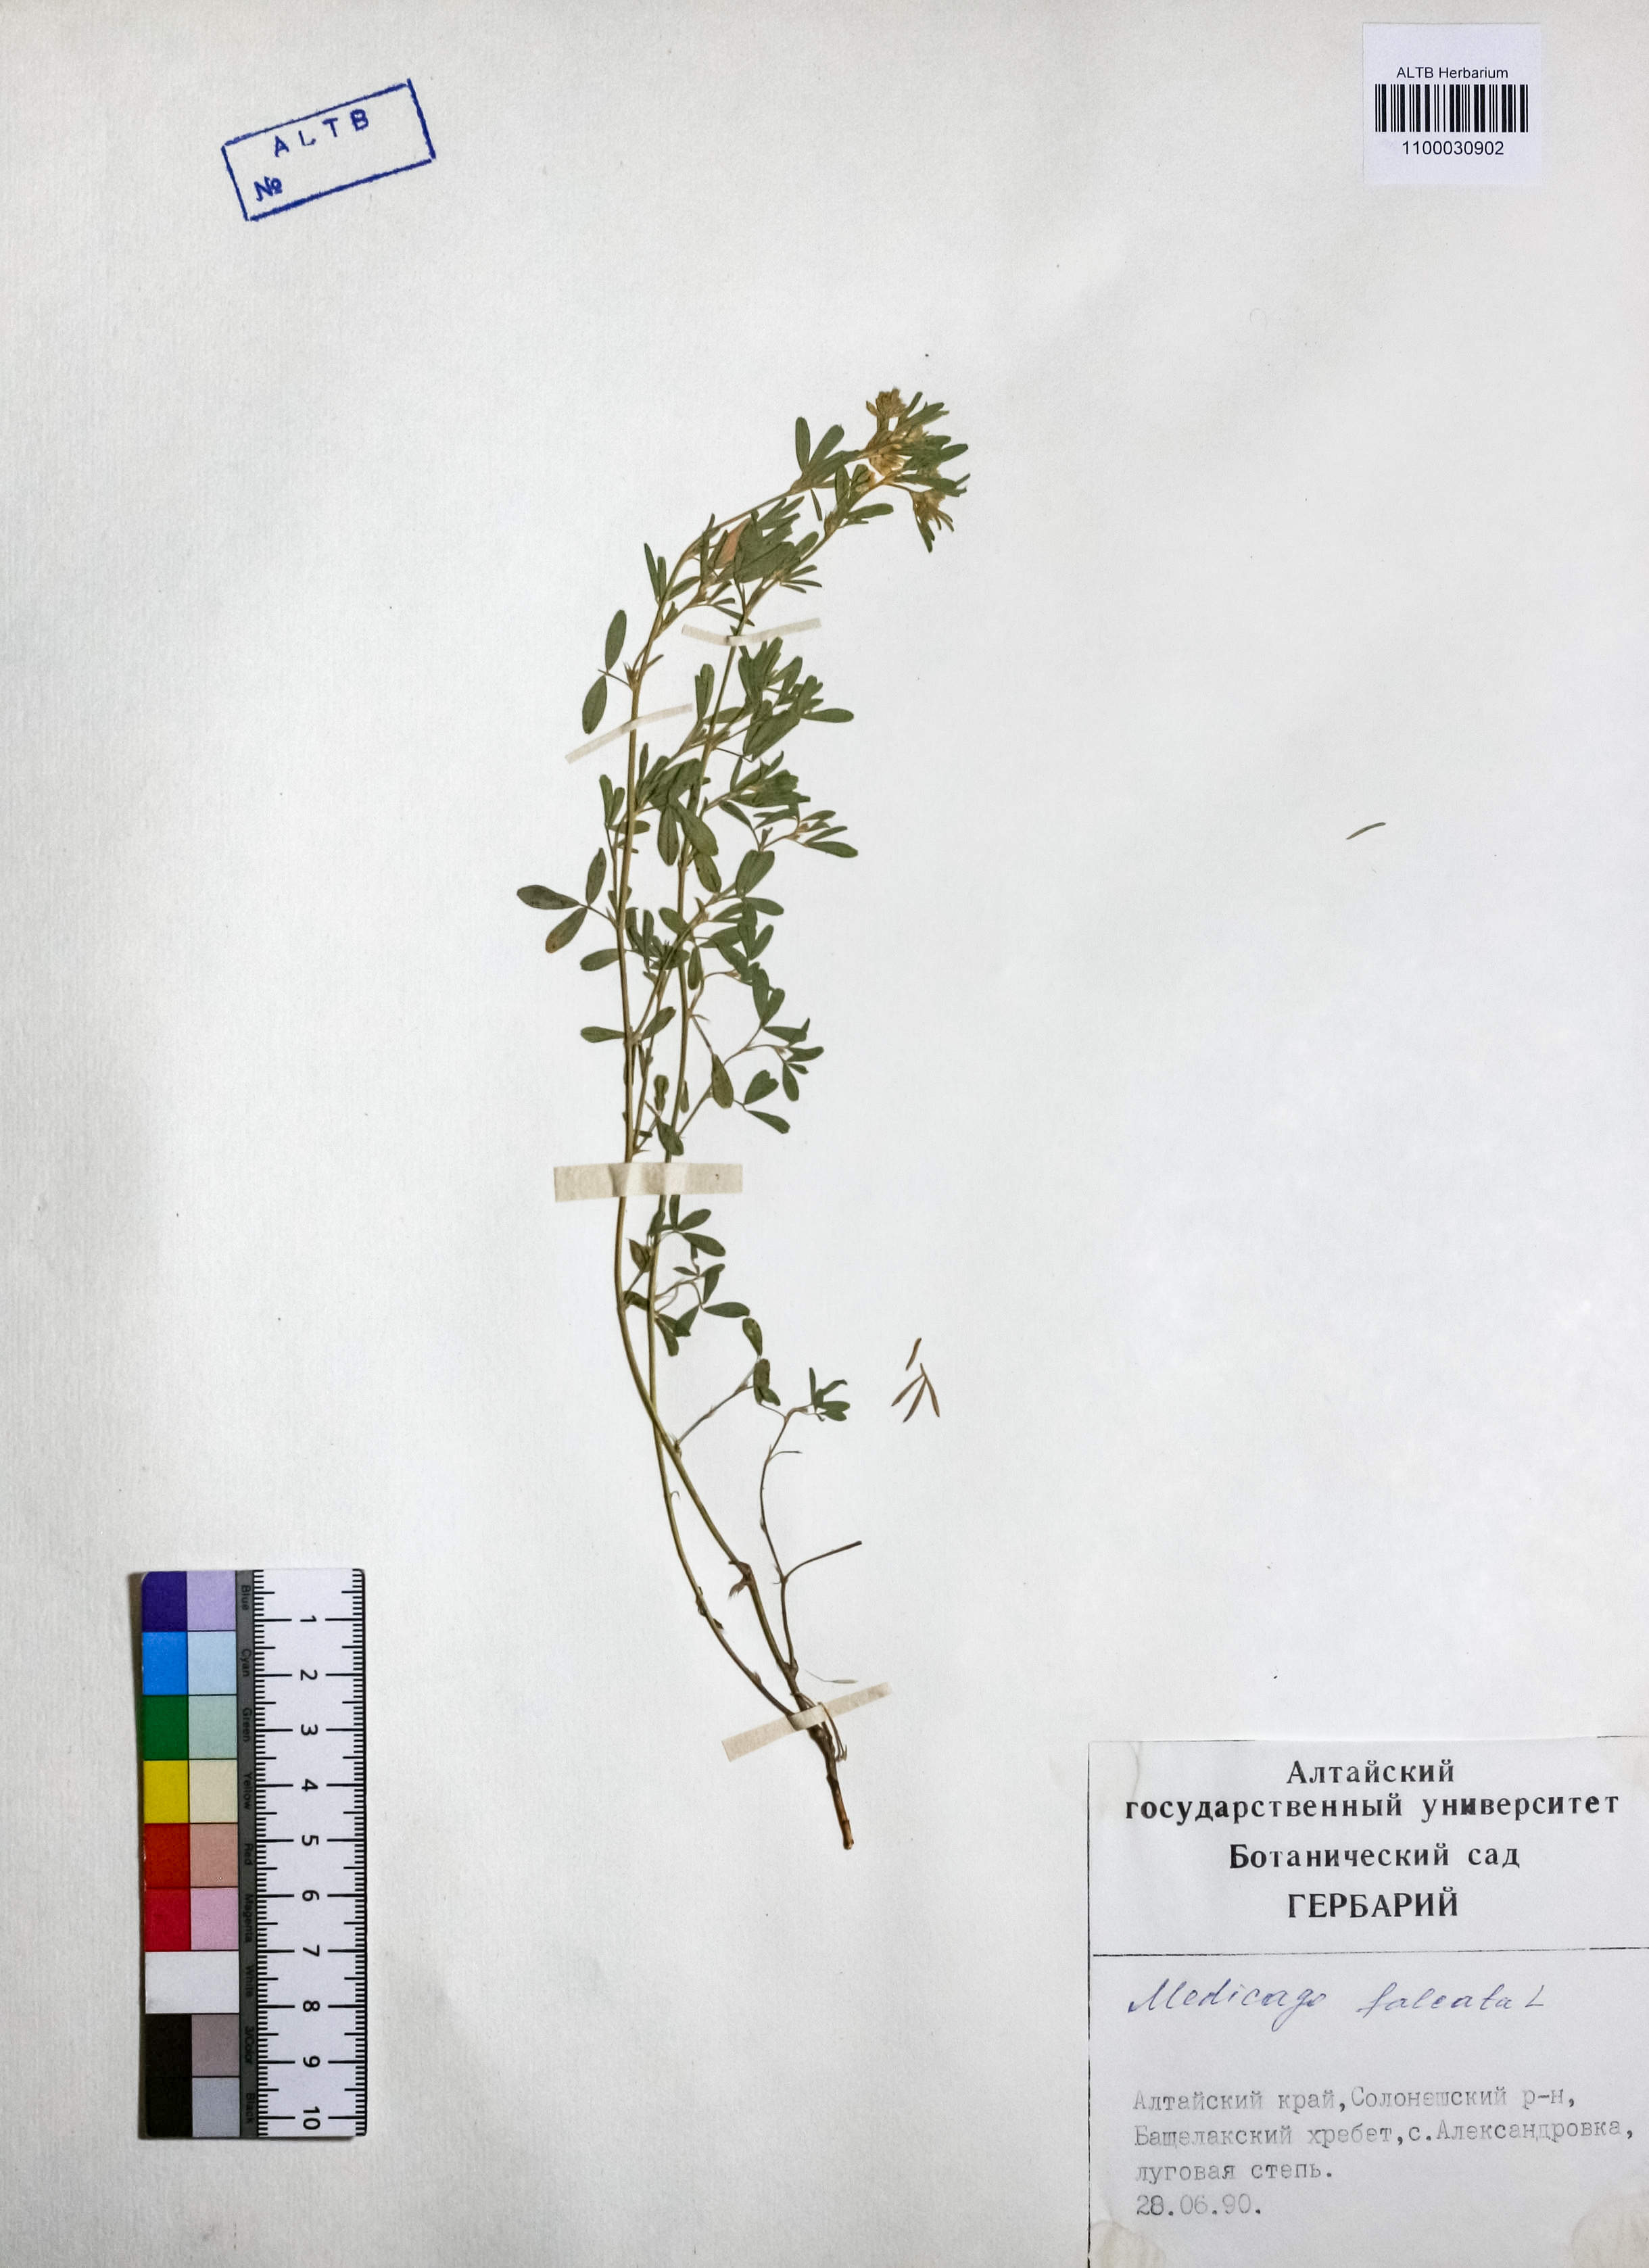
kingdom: Plantae
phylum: Tracheophyta
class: Magnoliopsida
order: Fabales
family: Fabaceae
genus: Medicago
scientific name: Medicago falcata
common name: Sickle medick
